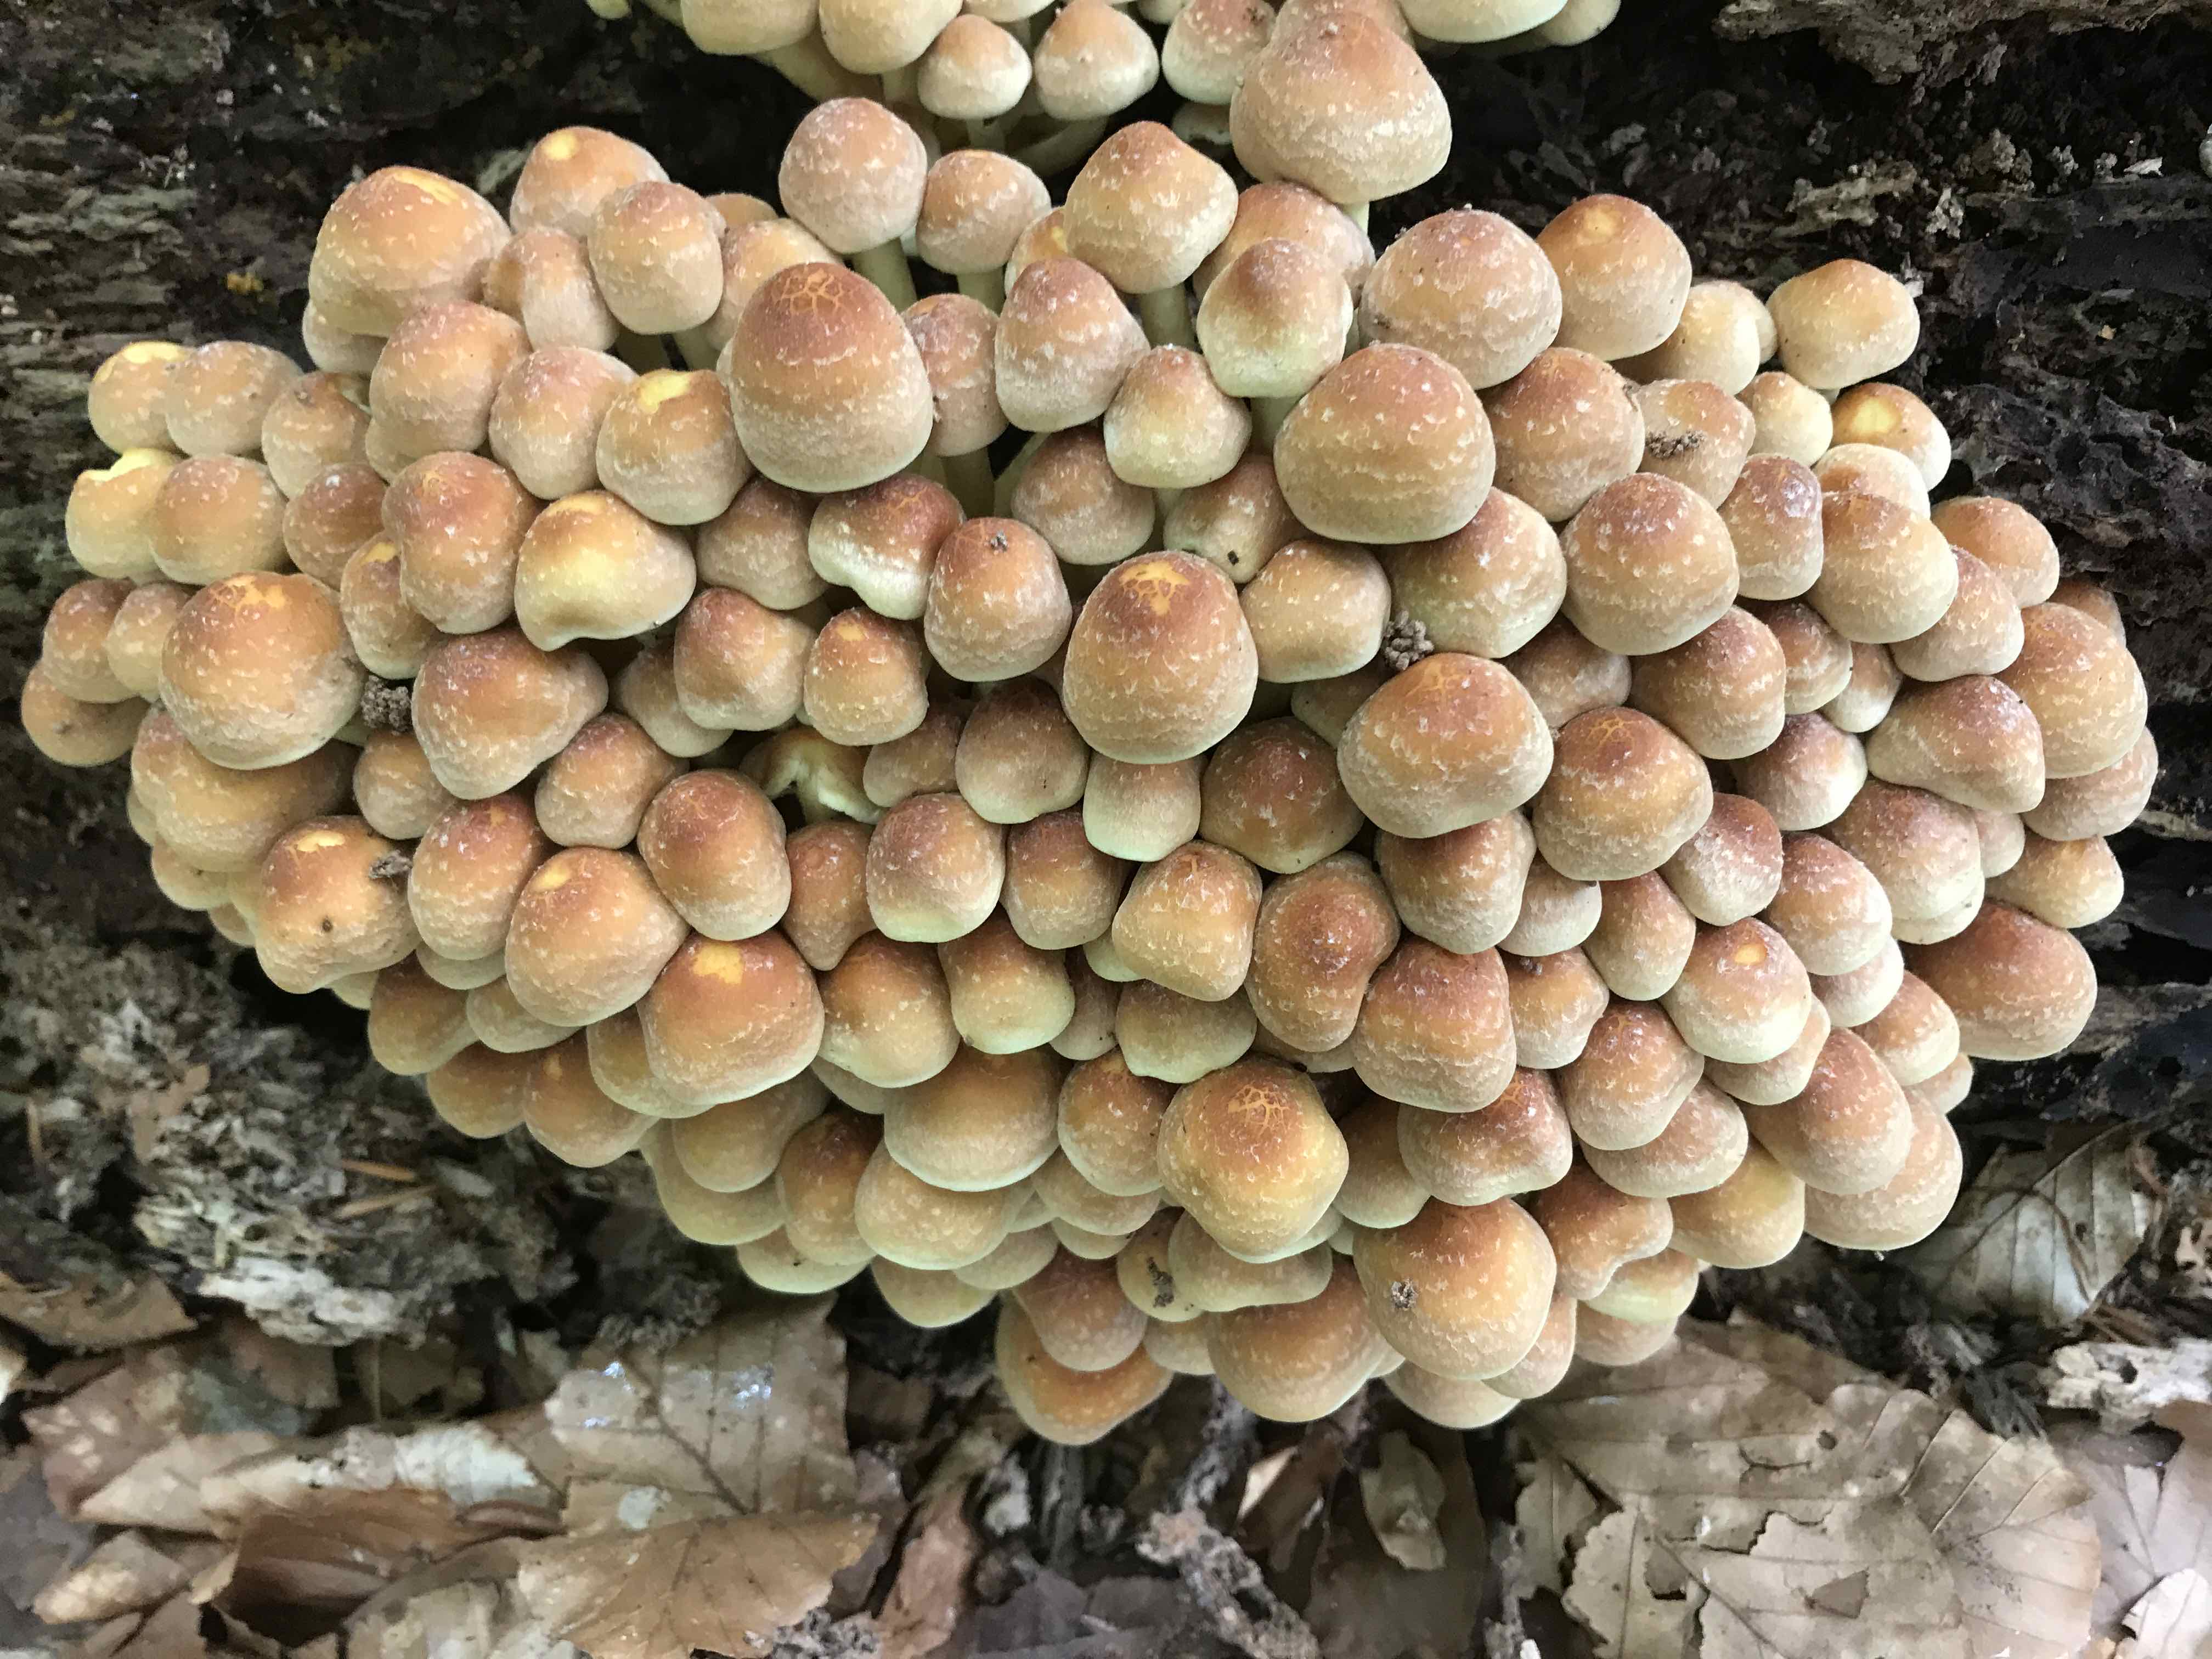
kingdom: Fungi
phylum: Basidiomycota
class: Agaricomycetes
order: Agaricales
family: Strophariaceae
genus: Hypholoma
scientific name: Hypholoma fasciculare
